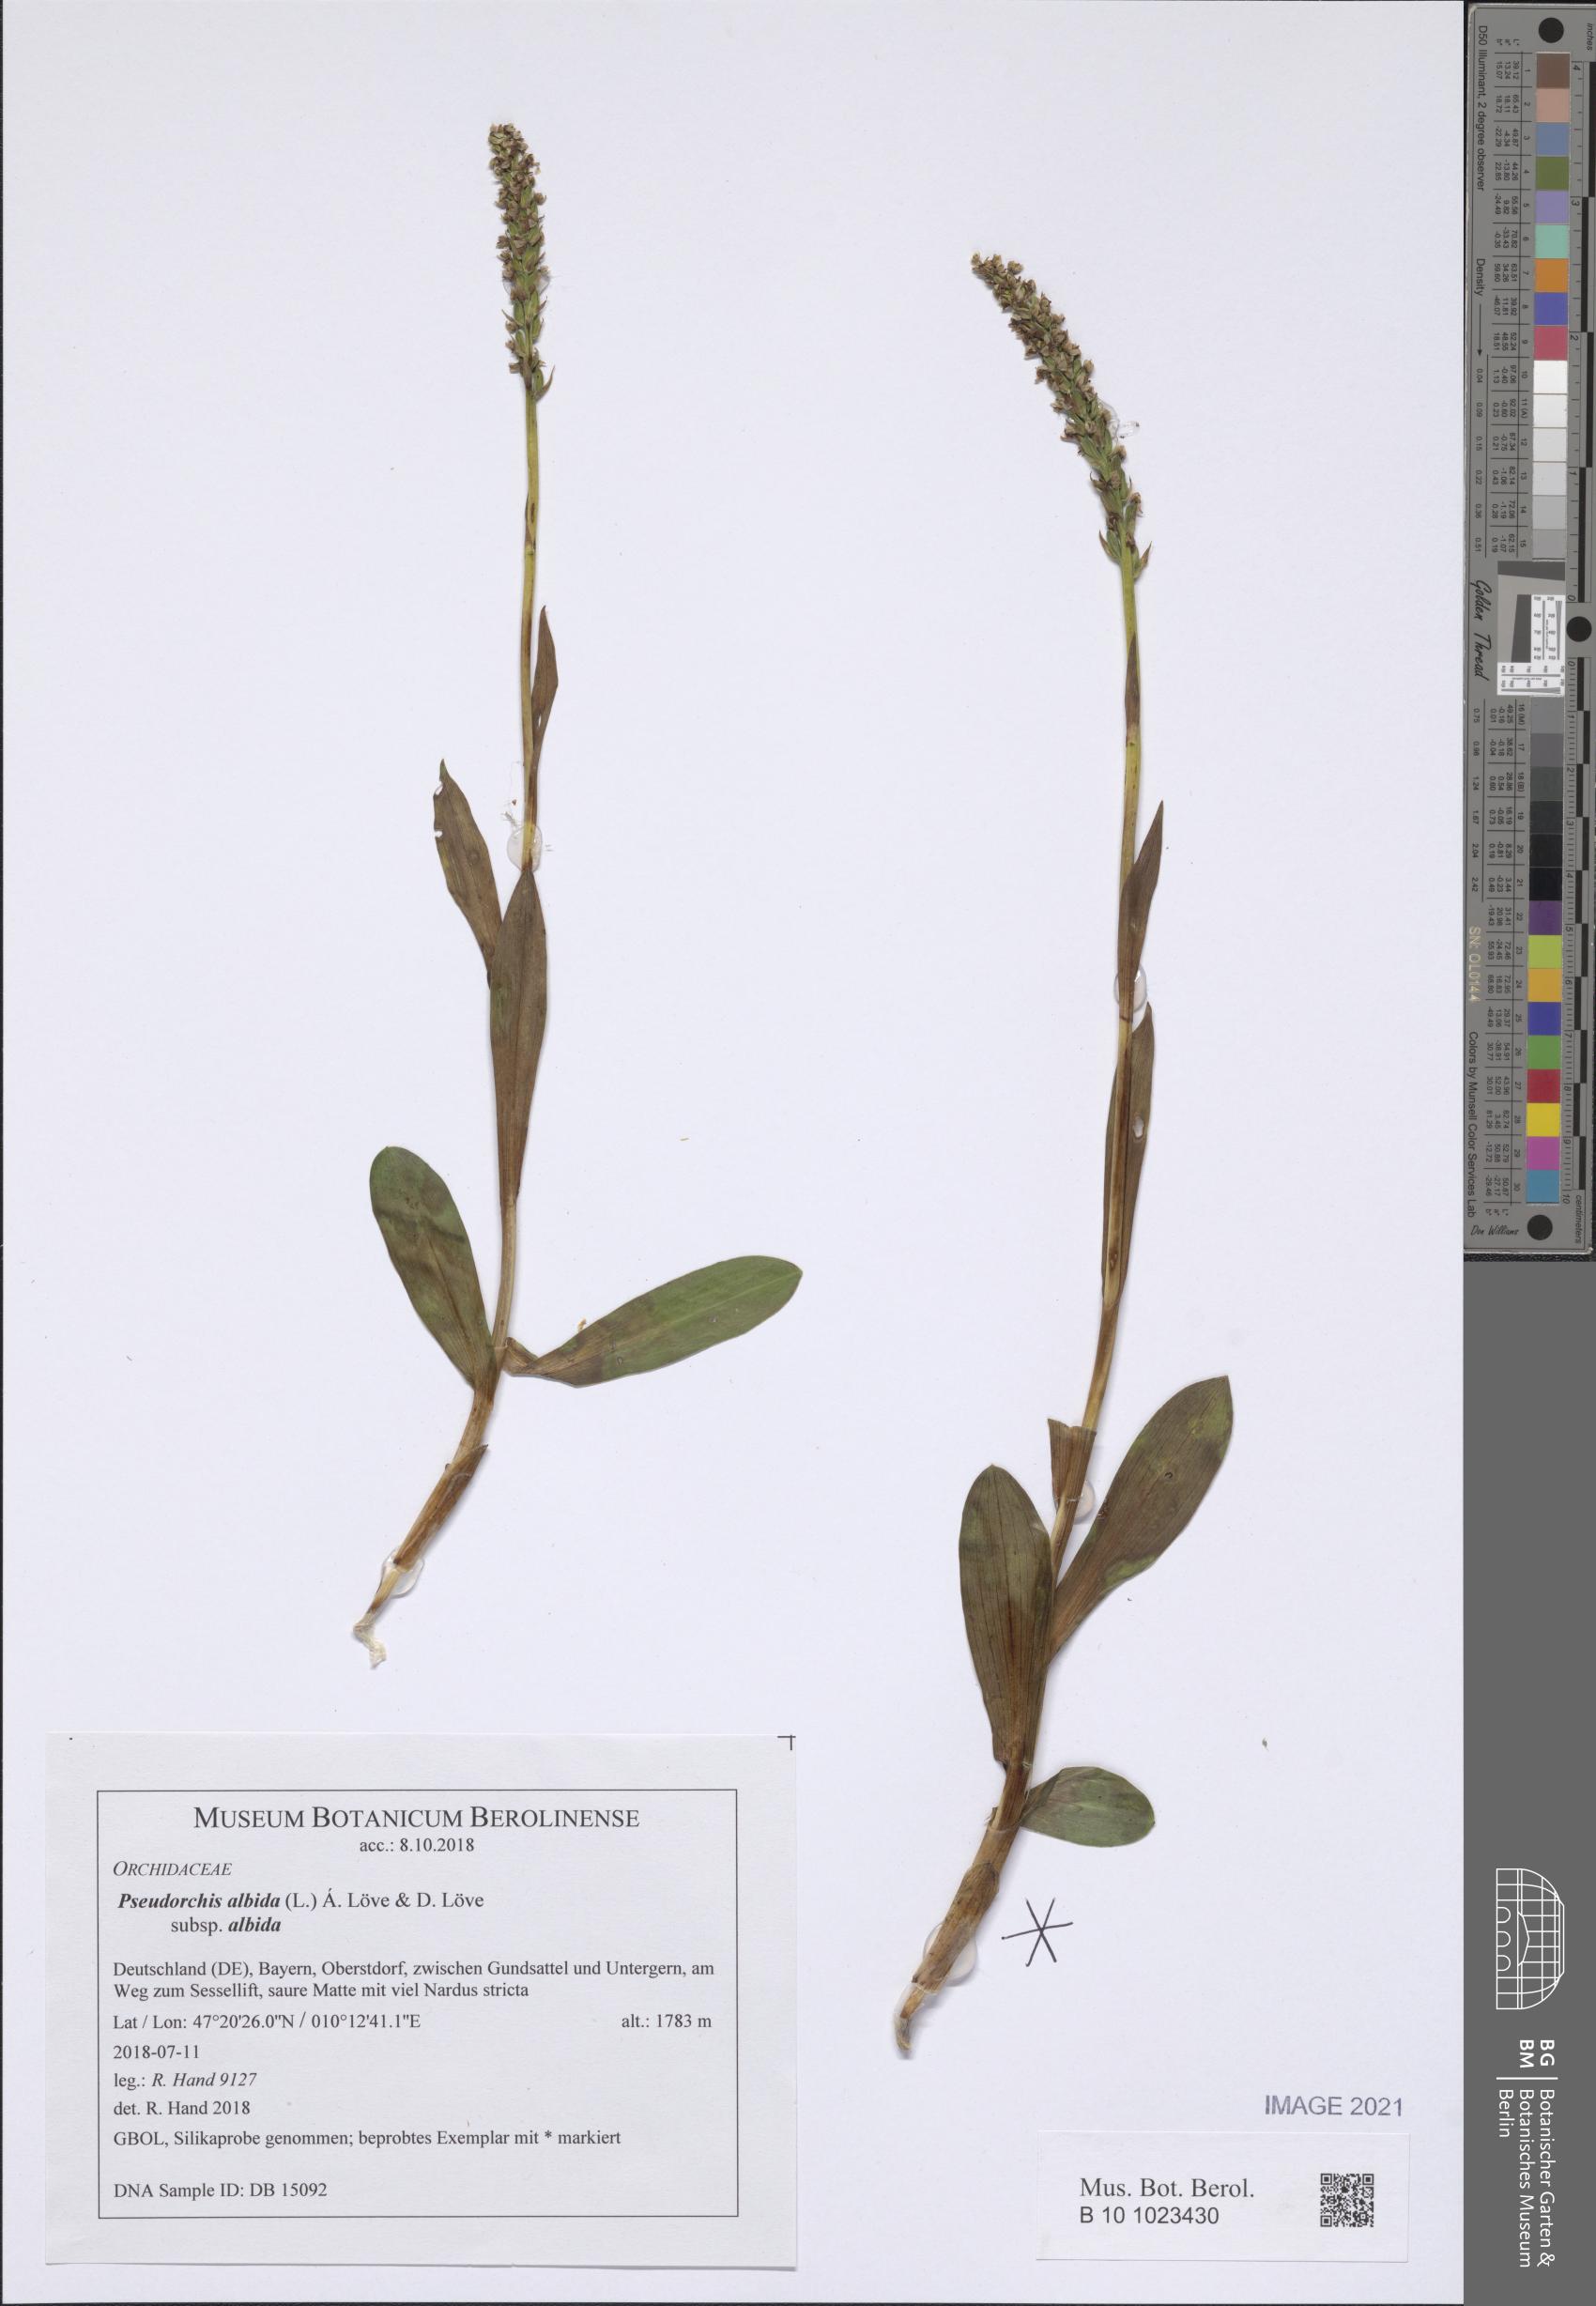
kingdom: Plantae
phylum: Tracheophyta
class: Liliopsida
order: Asparagales
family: Orchidaceae
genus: Pseudorchis
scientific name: Pseudorchis albida
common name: Small-white orchid
